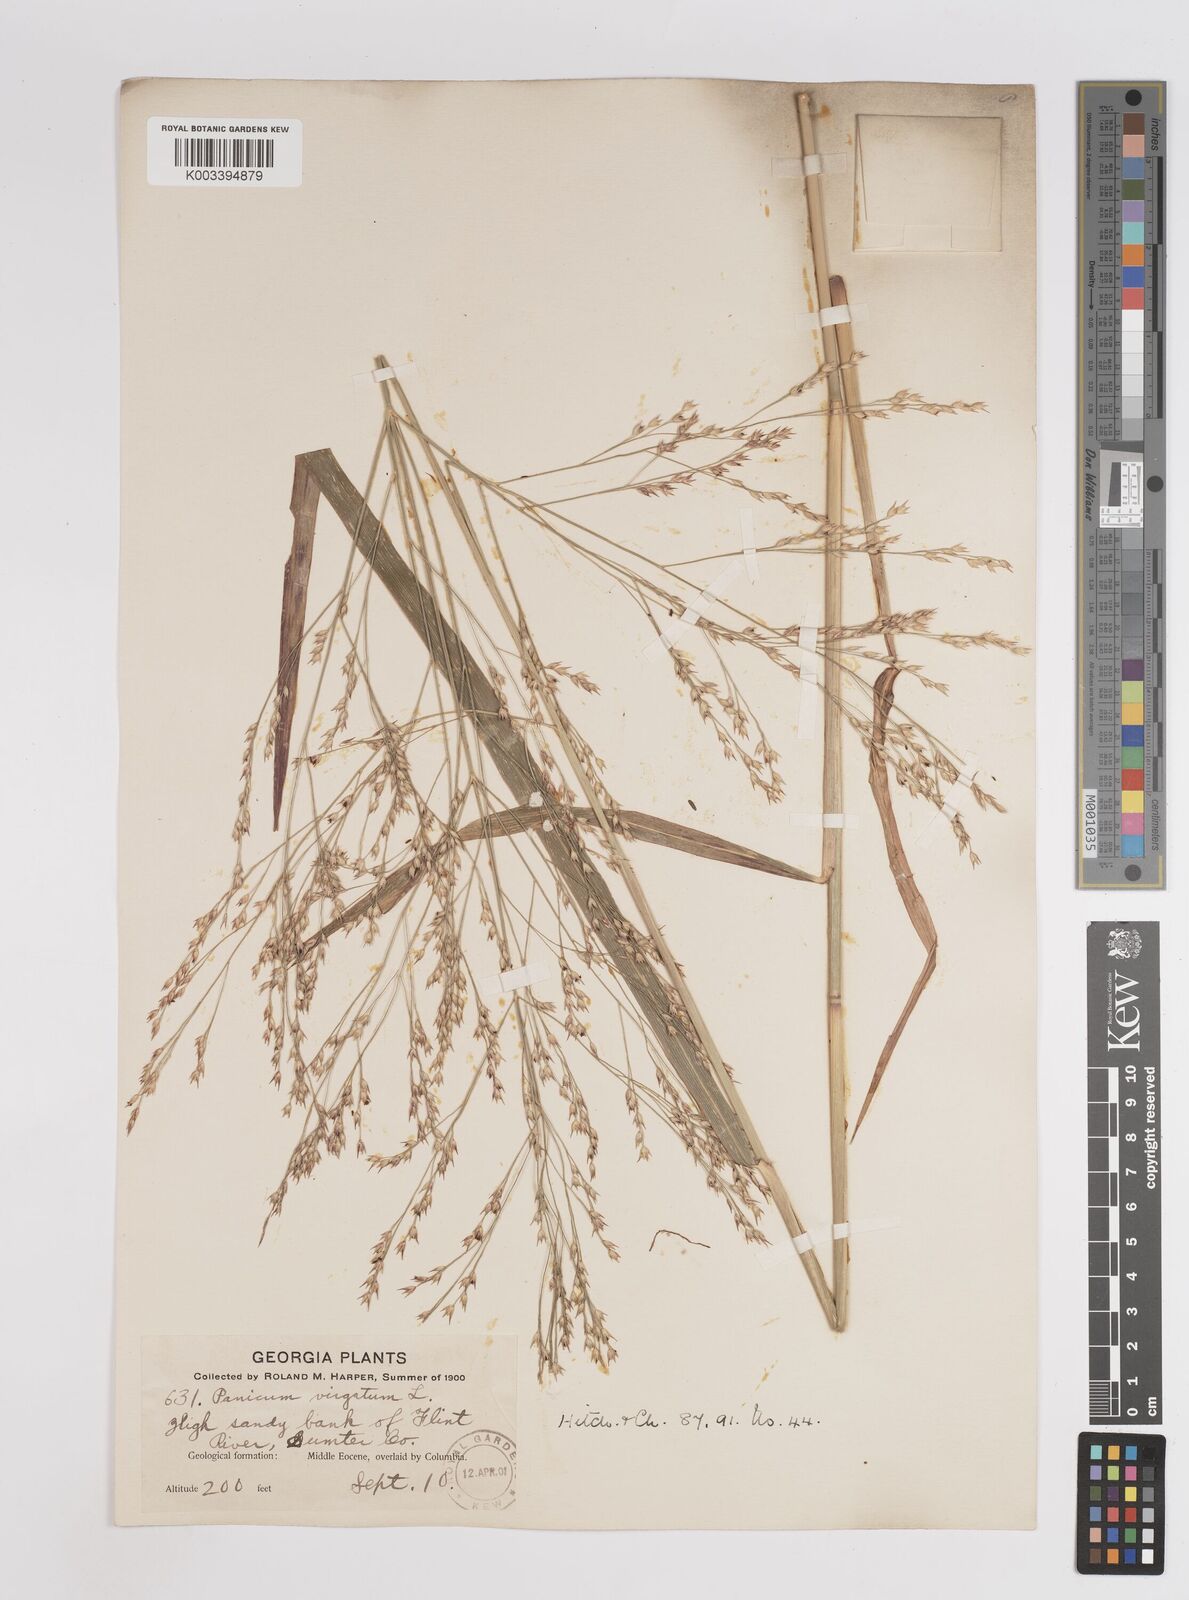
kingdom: Plantae
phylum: Tracheophyta
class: Liliopsida
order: Poales
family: Poaceae
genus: Panicum
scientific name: Panicum virgatum
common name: Switchgrass
